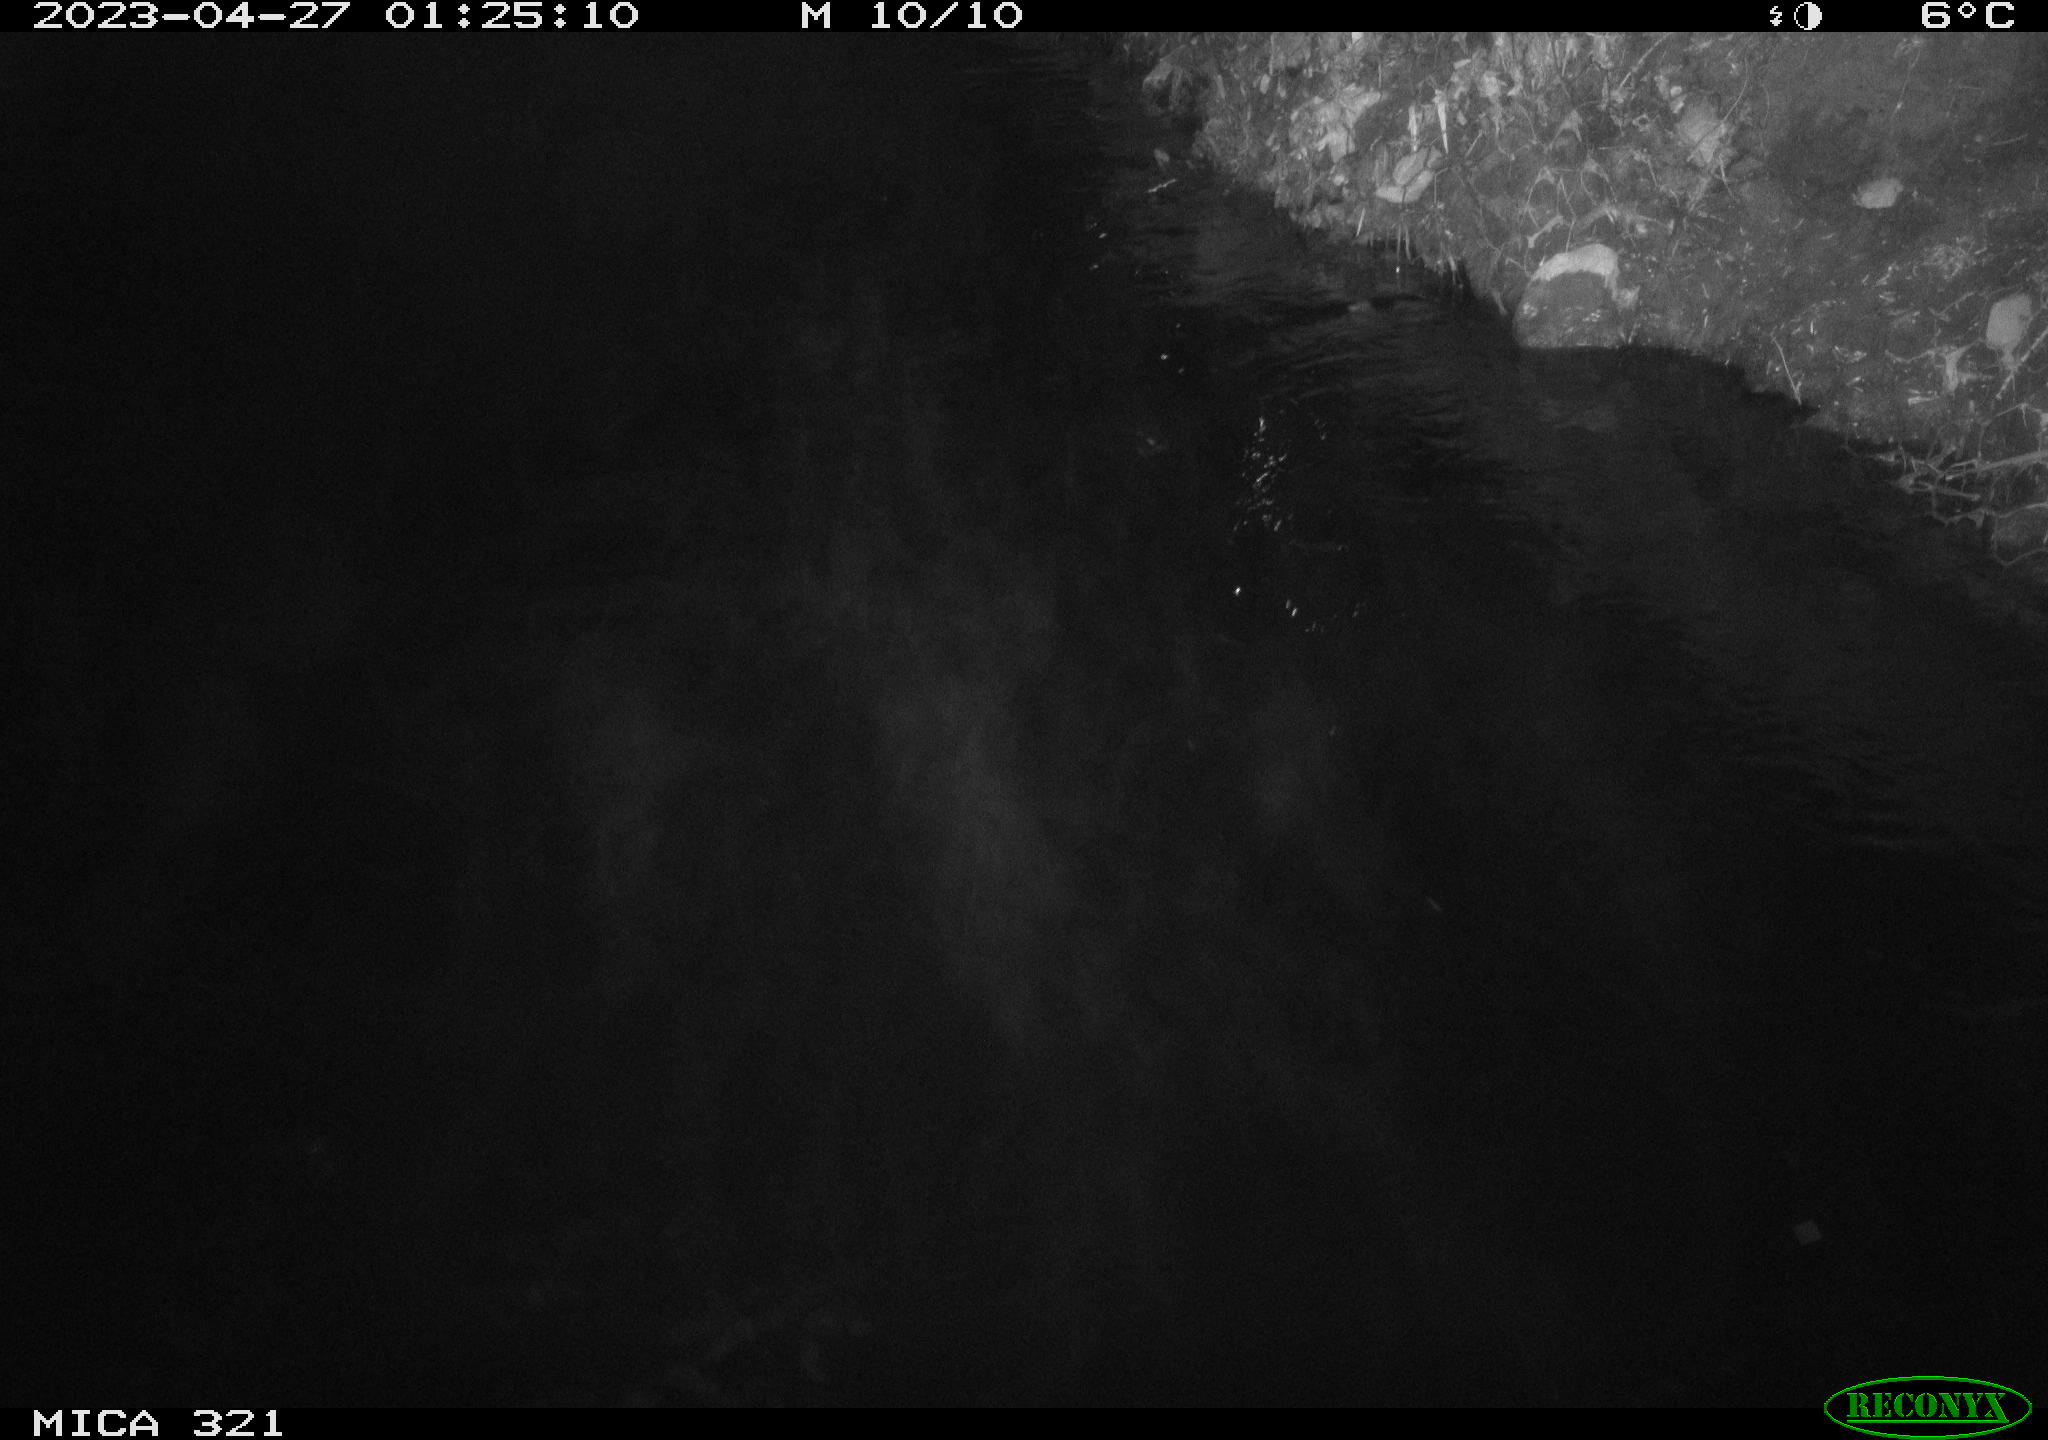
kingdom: Animalia
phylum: Chordata
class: Aves
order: Anseriformes
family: Anatidae
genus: Anas
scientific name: Anas
